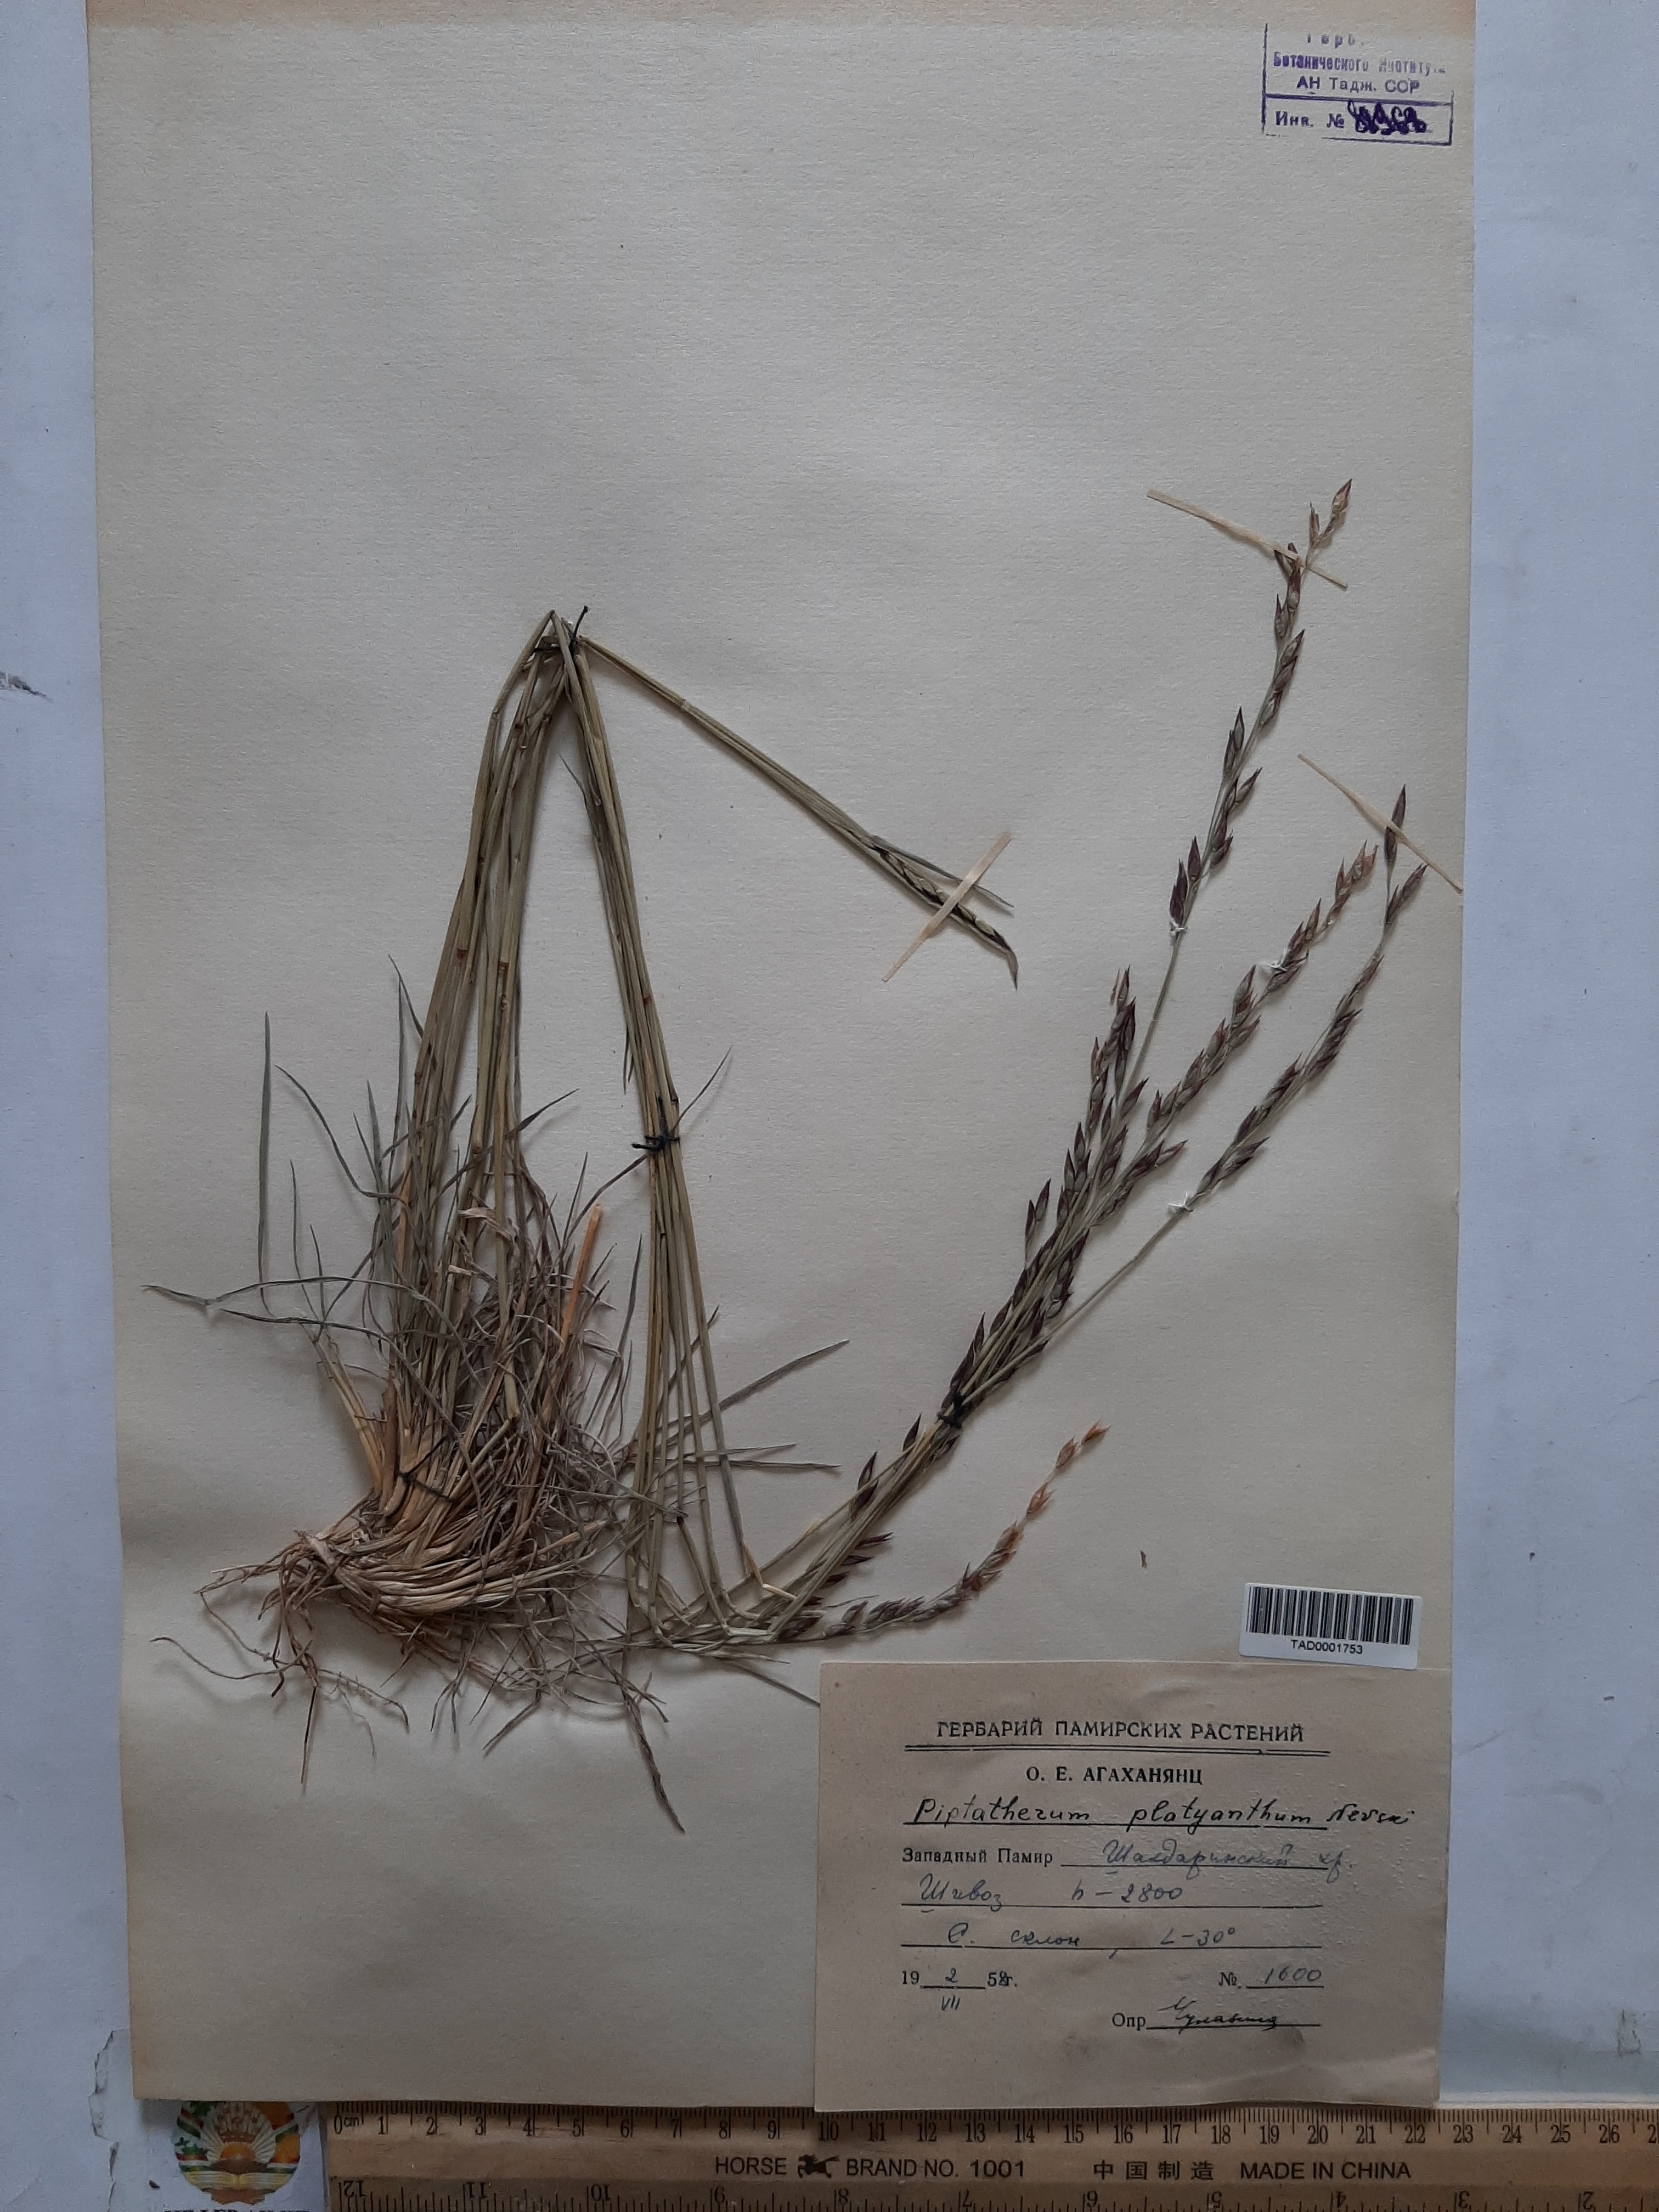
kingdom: Plantae
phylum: Tracheophyta
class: Liliopsida
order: Poales
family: Poaceae
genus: Piptatherum
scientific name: Piptatherum platyanthum
